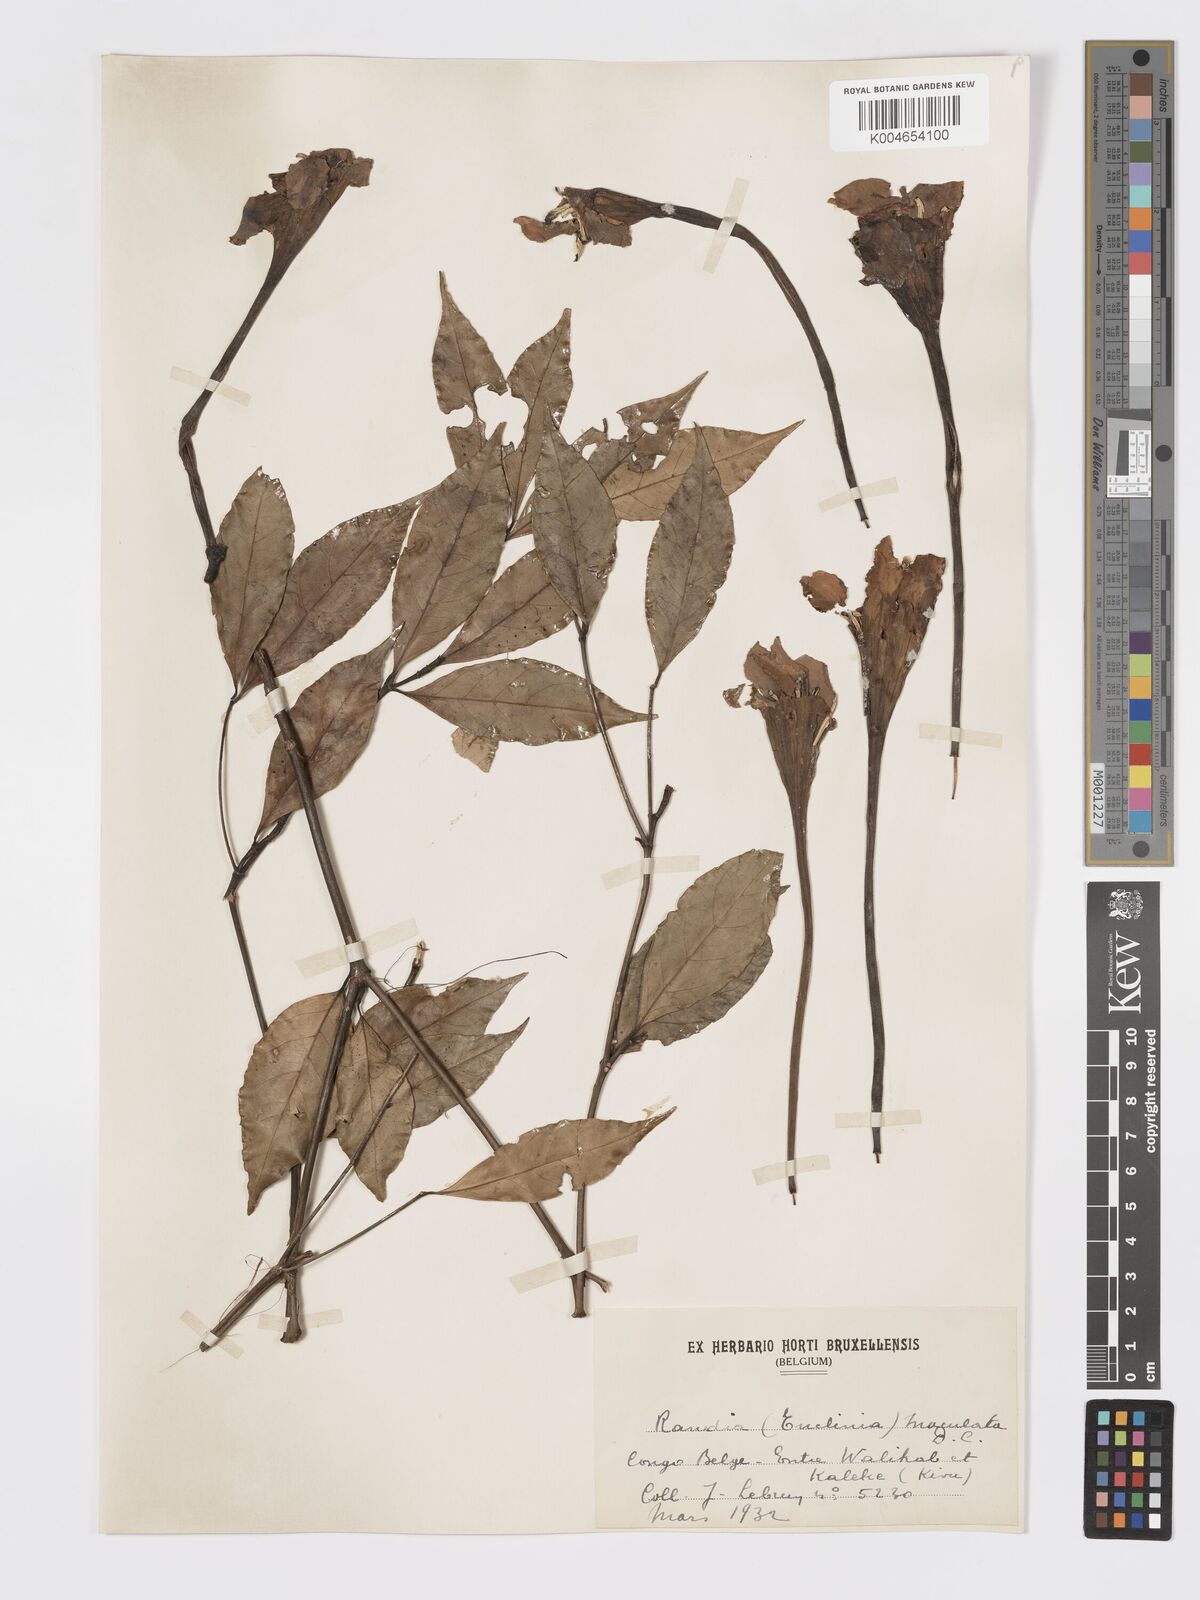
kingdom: Plantae
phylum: Tracheophyta
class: Magnoliopsida
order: Gentianales
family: Rubiaceae
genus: Rothmannia
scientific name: Rothmannia longiflora
